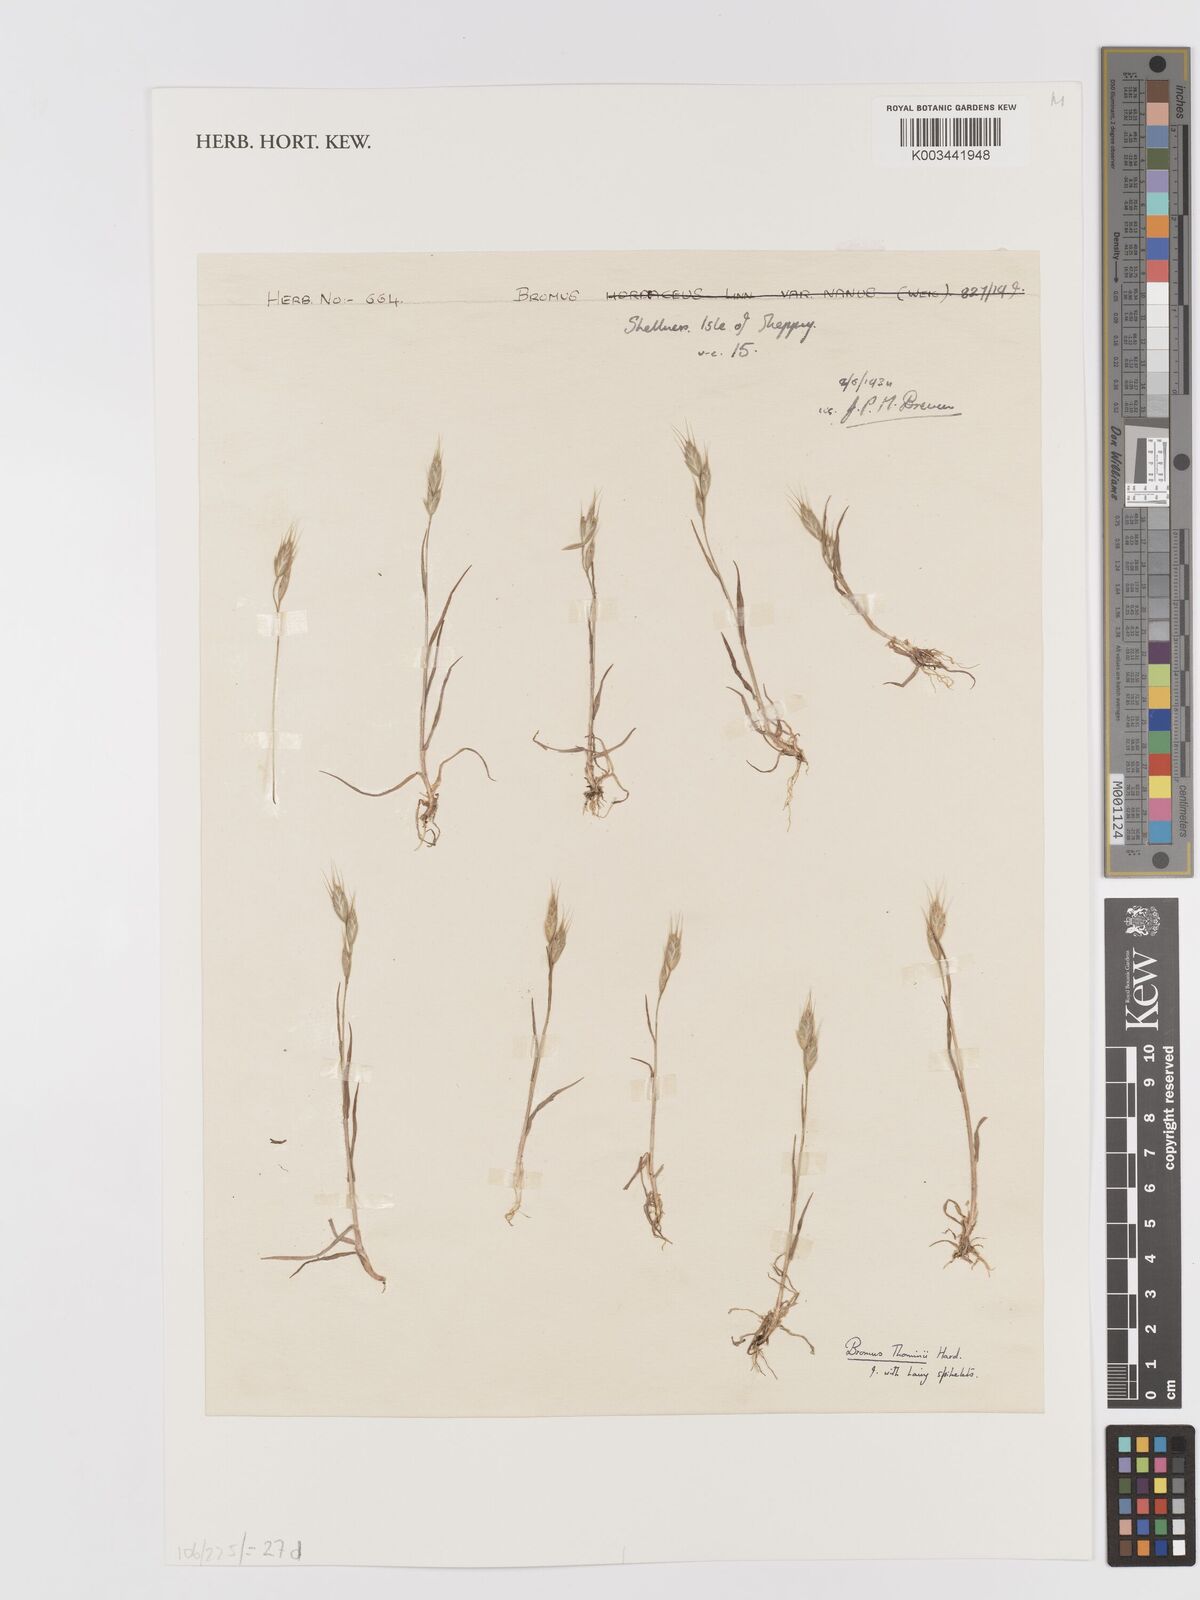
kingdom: Plantae
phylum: Tracheophyta
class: Liliopsida
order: Poales
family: Poaceae
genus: Bromus
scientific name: Bromus hordeaceus
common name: Soft brome
